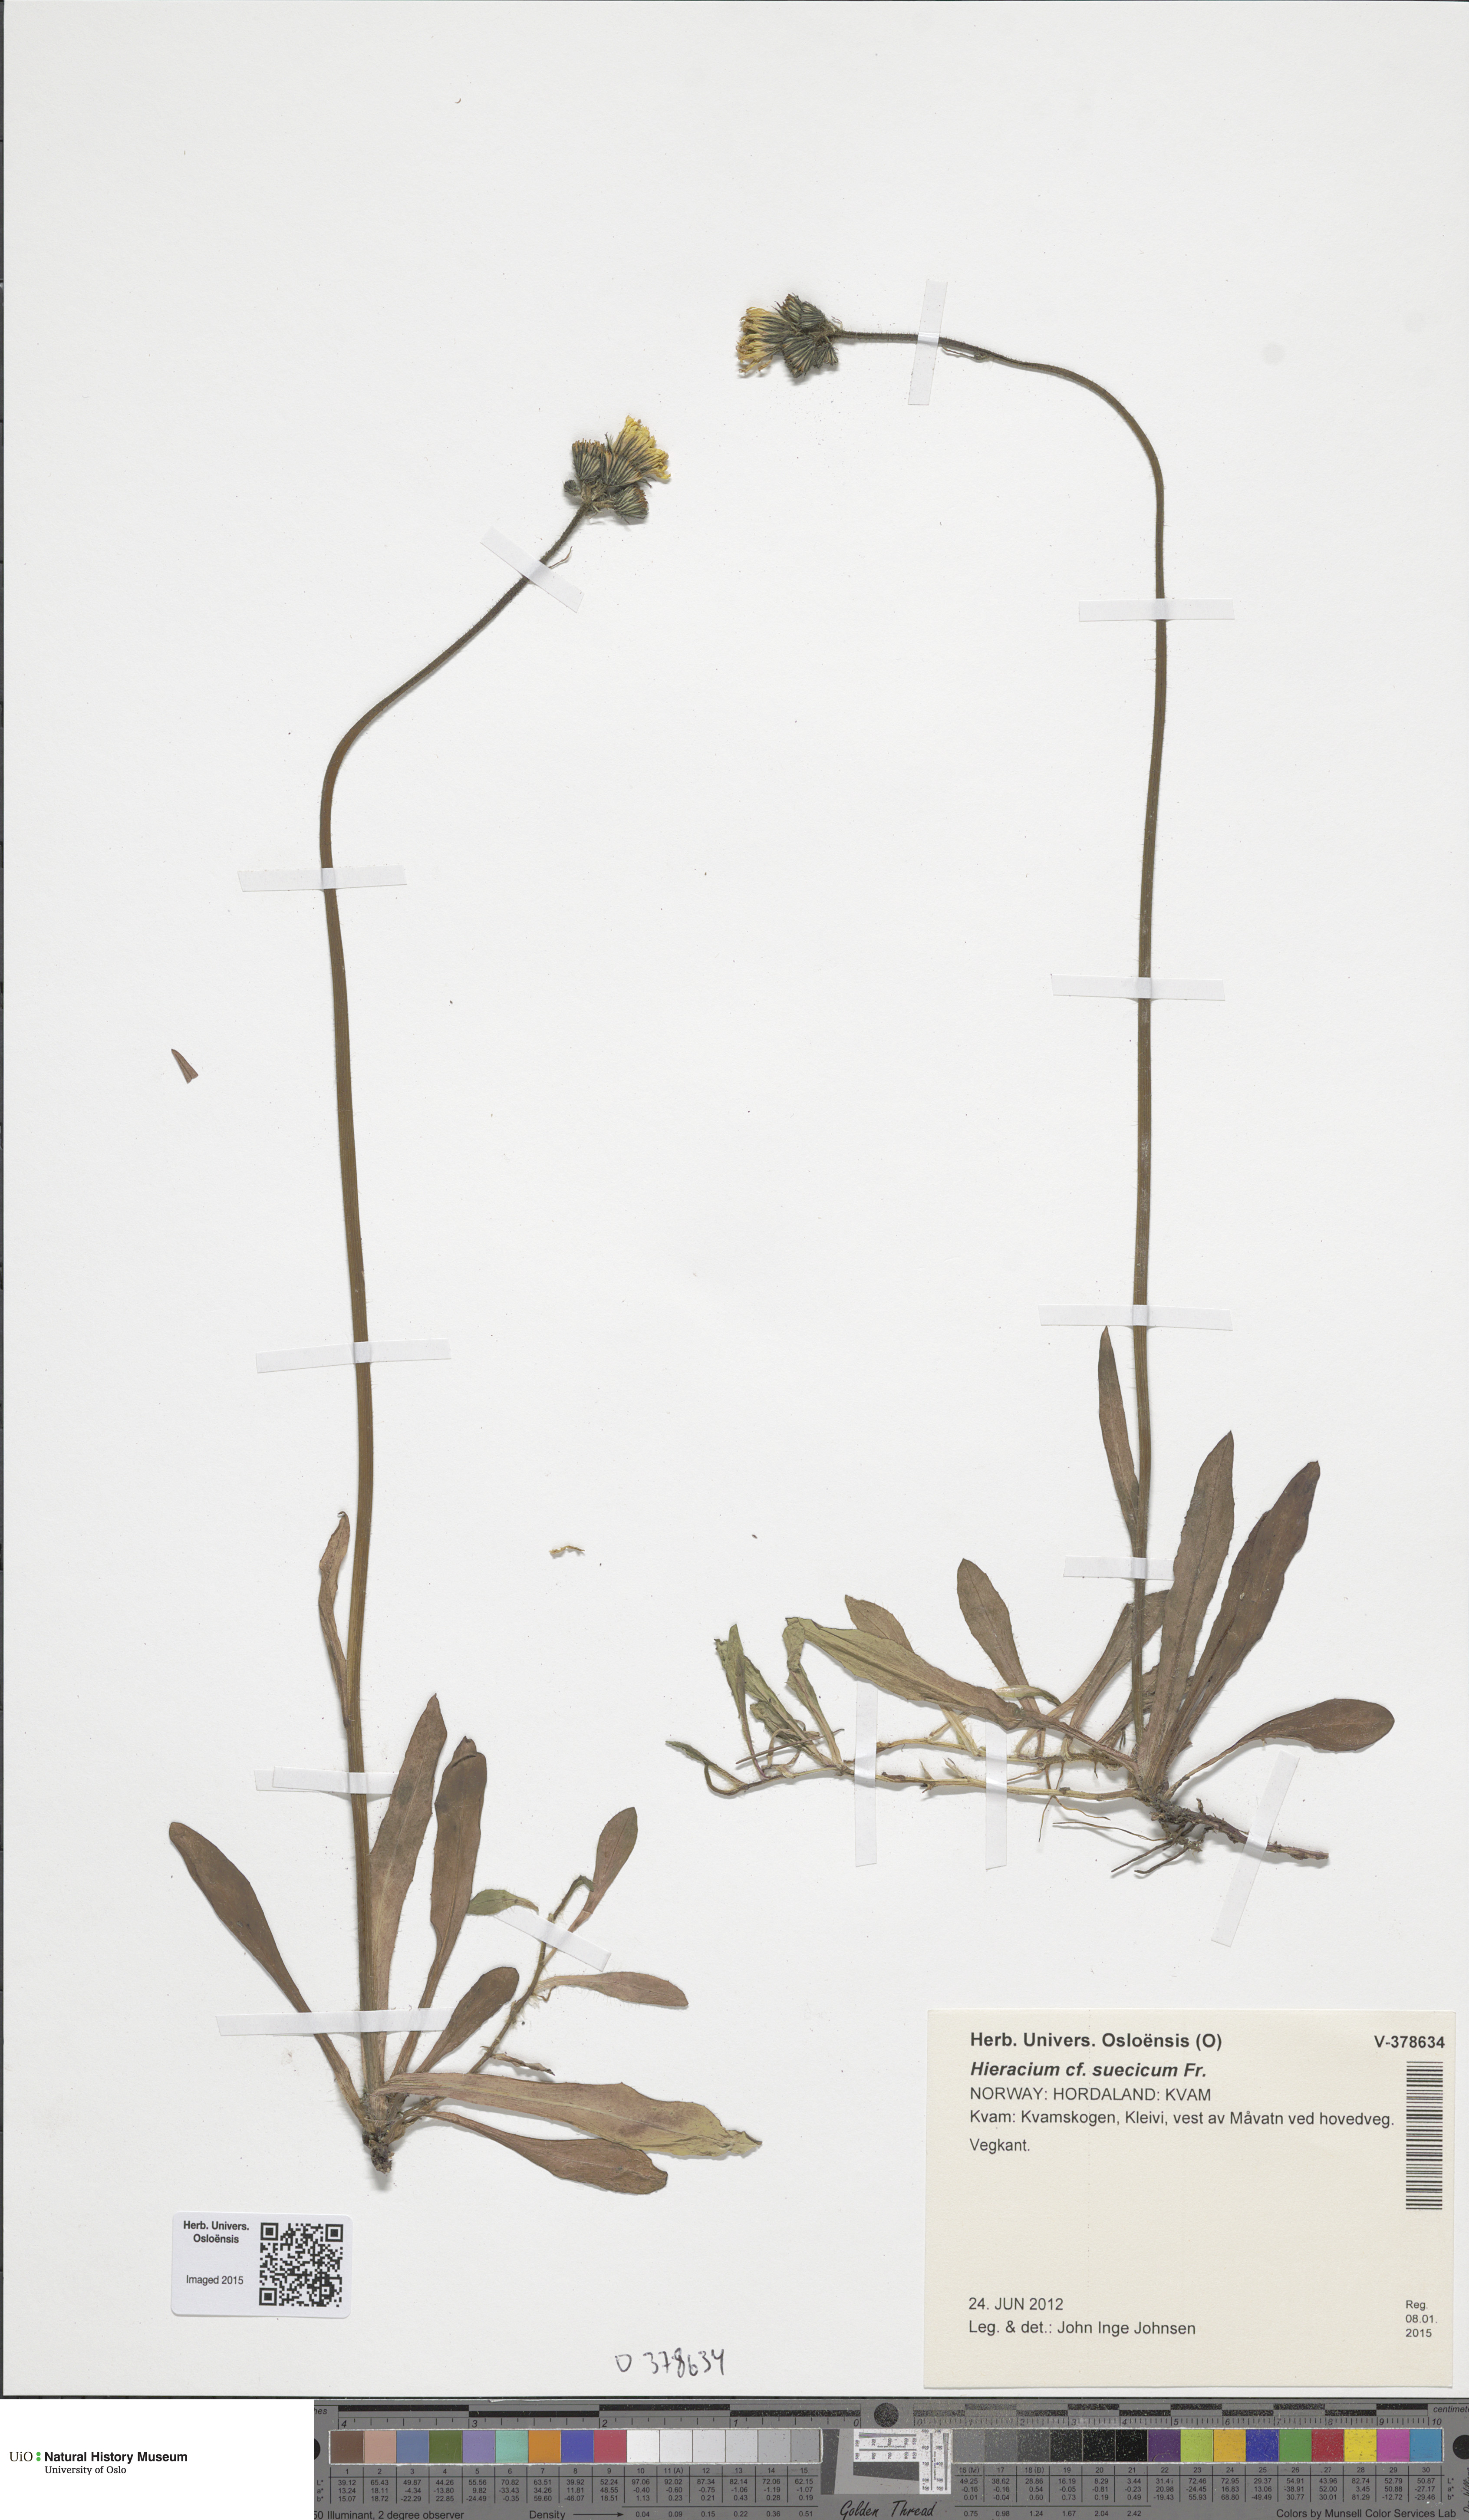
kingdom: Plantae
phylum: Tracheophyta
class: Magnoliopsida
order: Asterales
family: Asteraceae
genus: Pilosella
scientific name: Pilosella dubia
